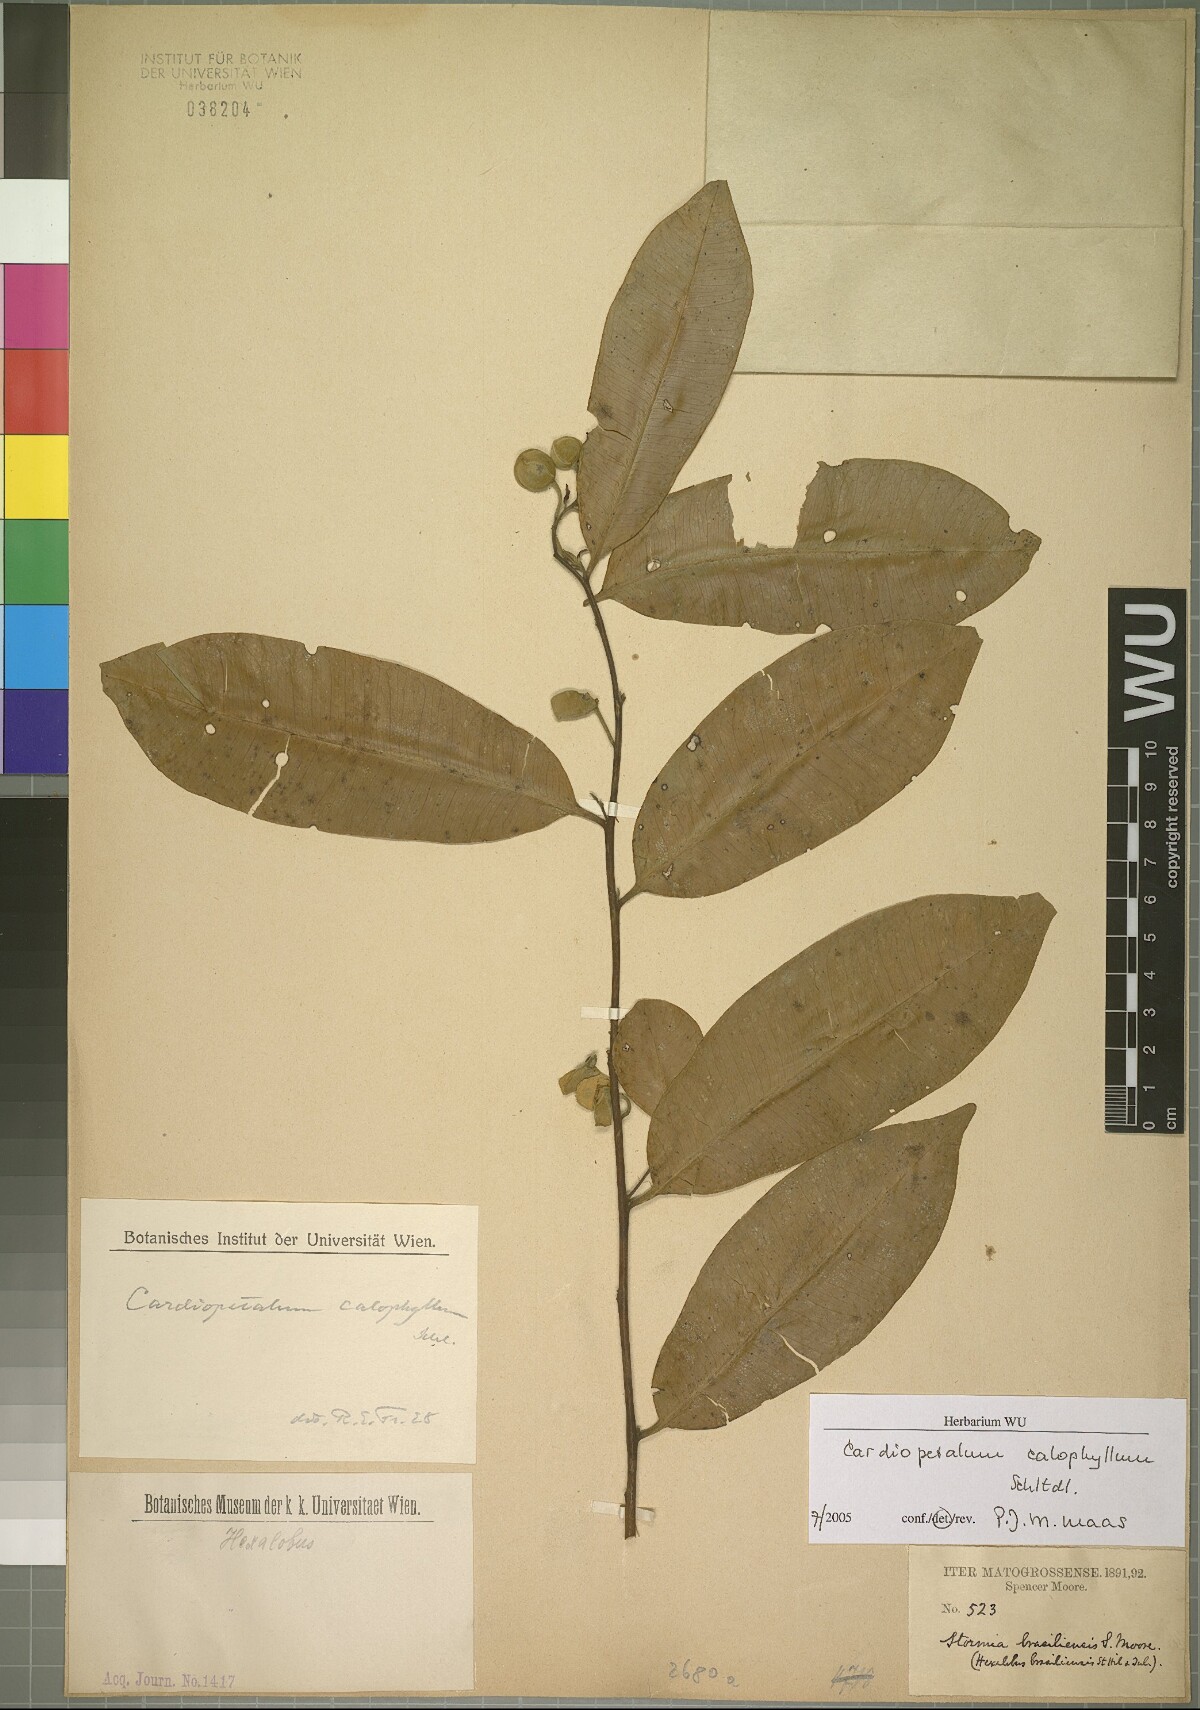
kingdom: Plantae
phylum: Tracheophyta
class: Magnoliopsida
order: Magnoliales
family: Annonaceae
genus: Cardiopetalum
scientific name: Cardiopetalum calophyllum
